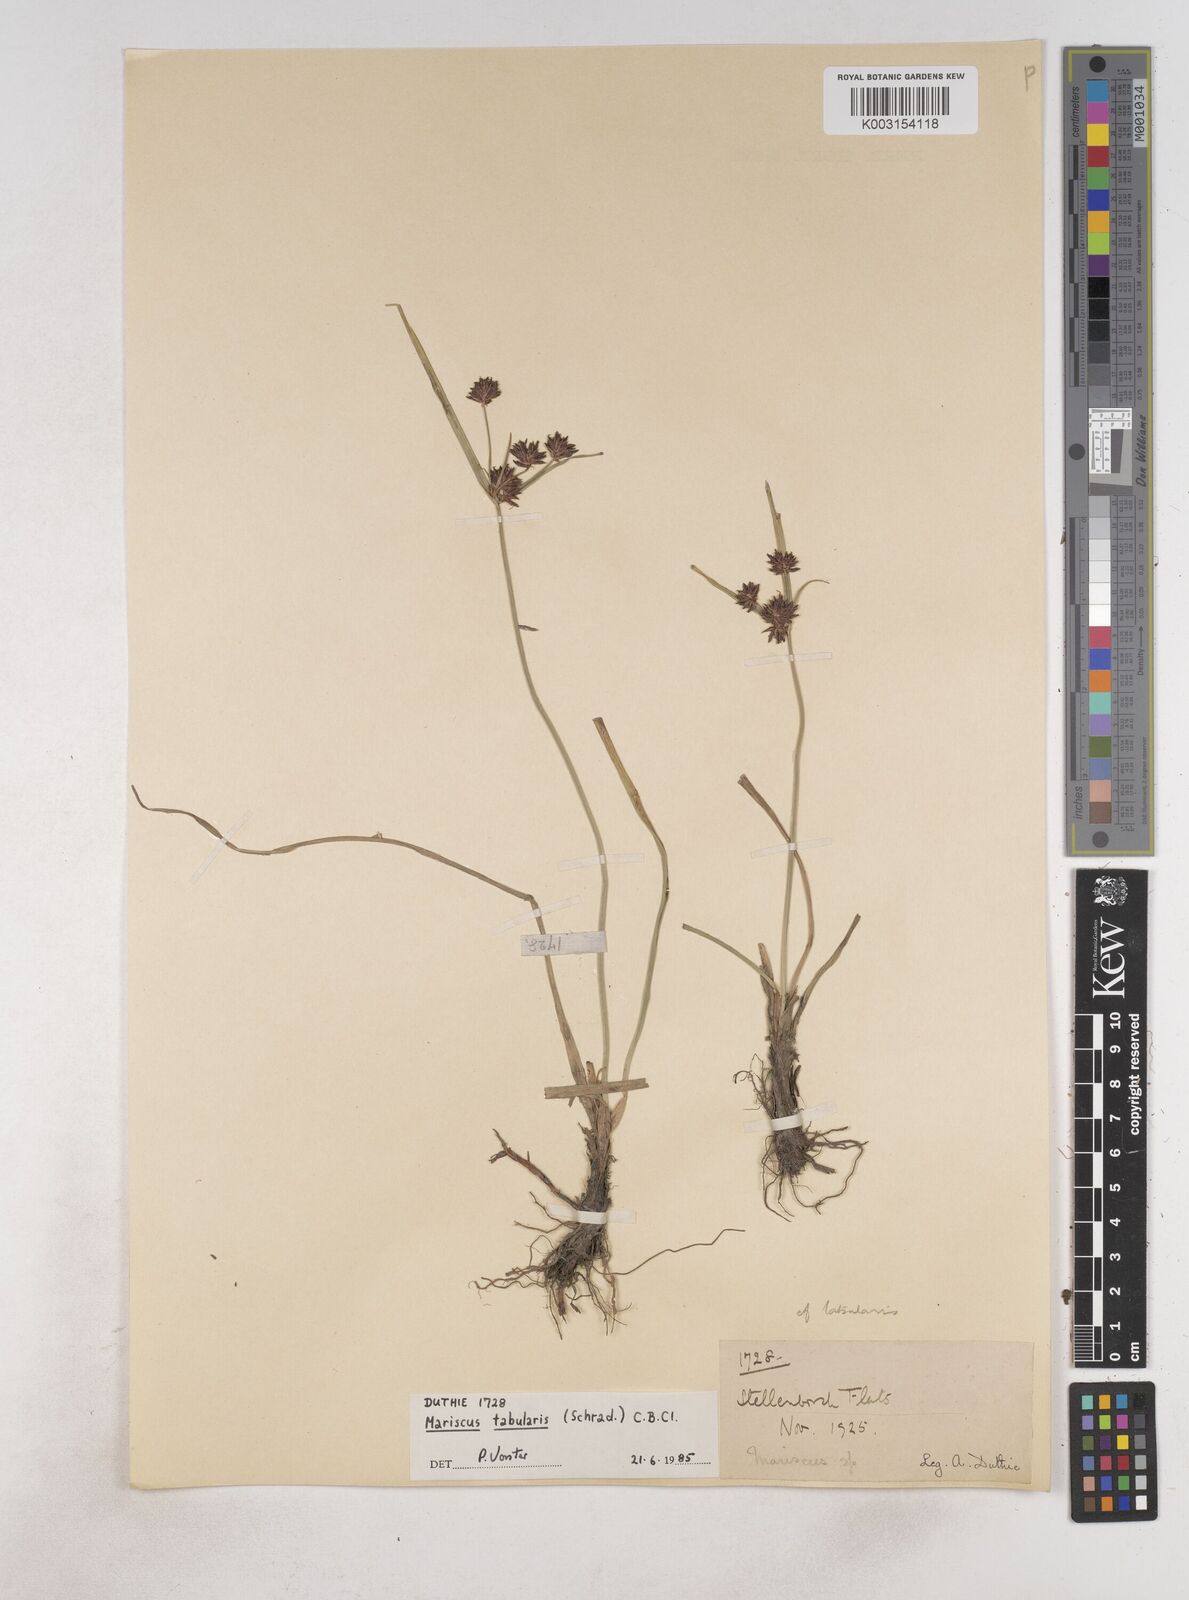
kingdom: Plantae
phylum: Tracheophyta
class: Liliopsida
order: Poales
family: Cyperaceae
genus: Cyperus
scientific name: Cyperus tabularis
